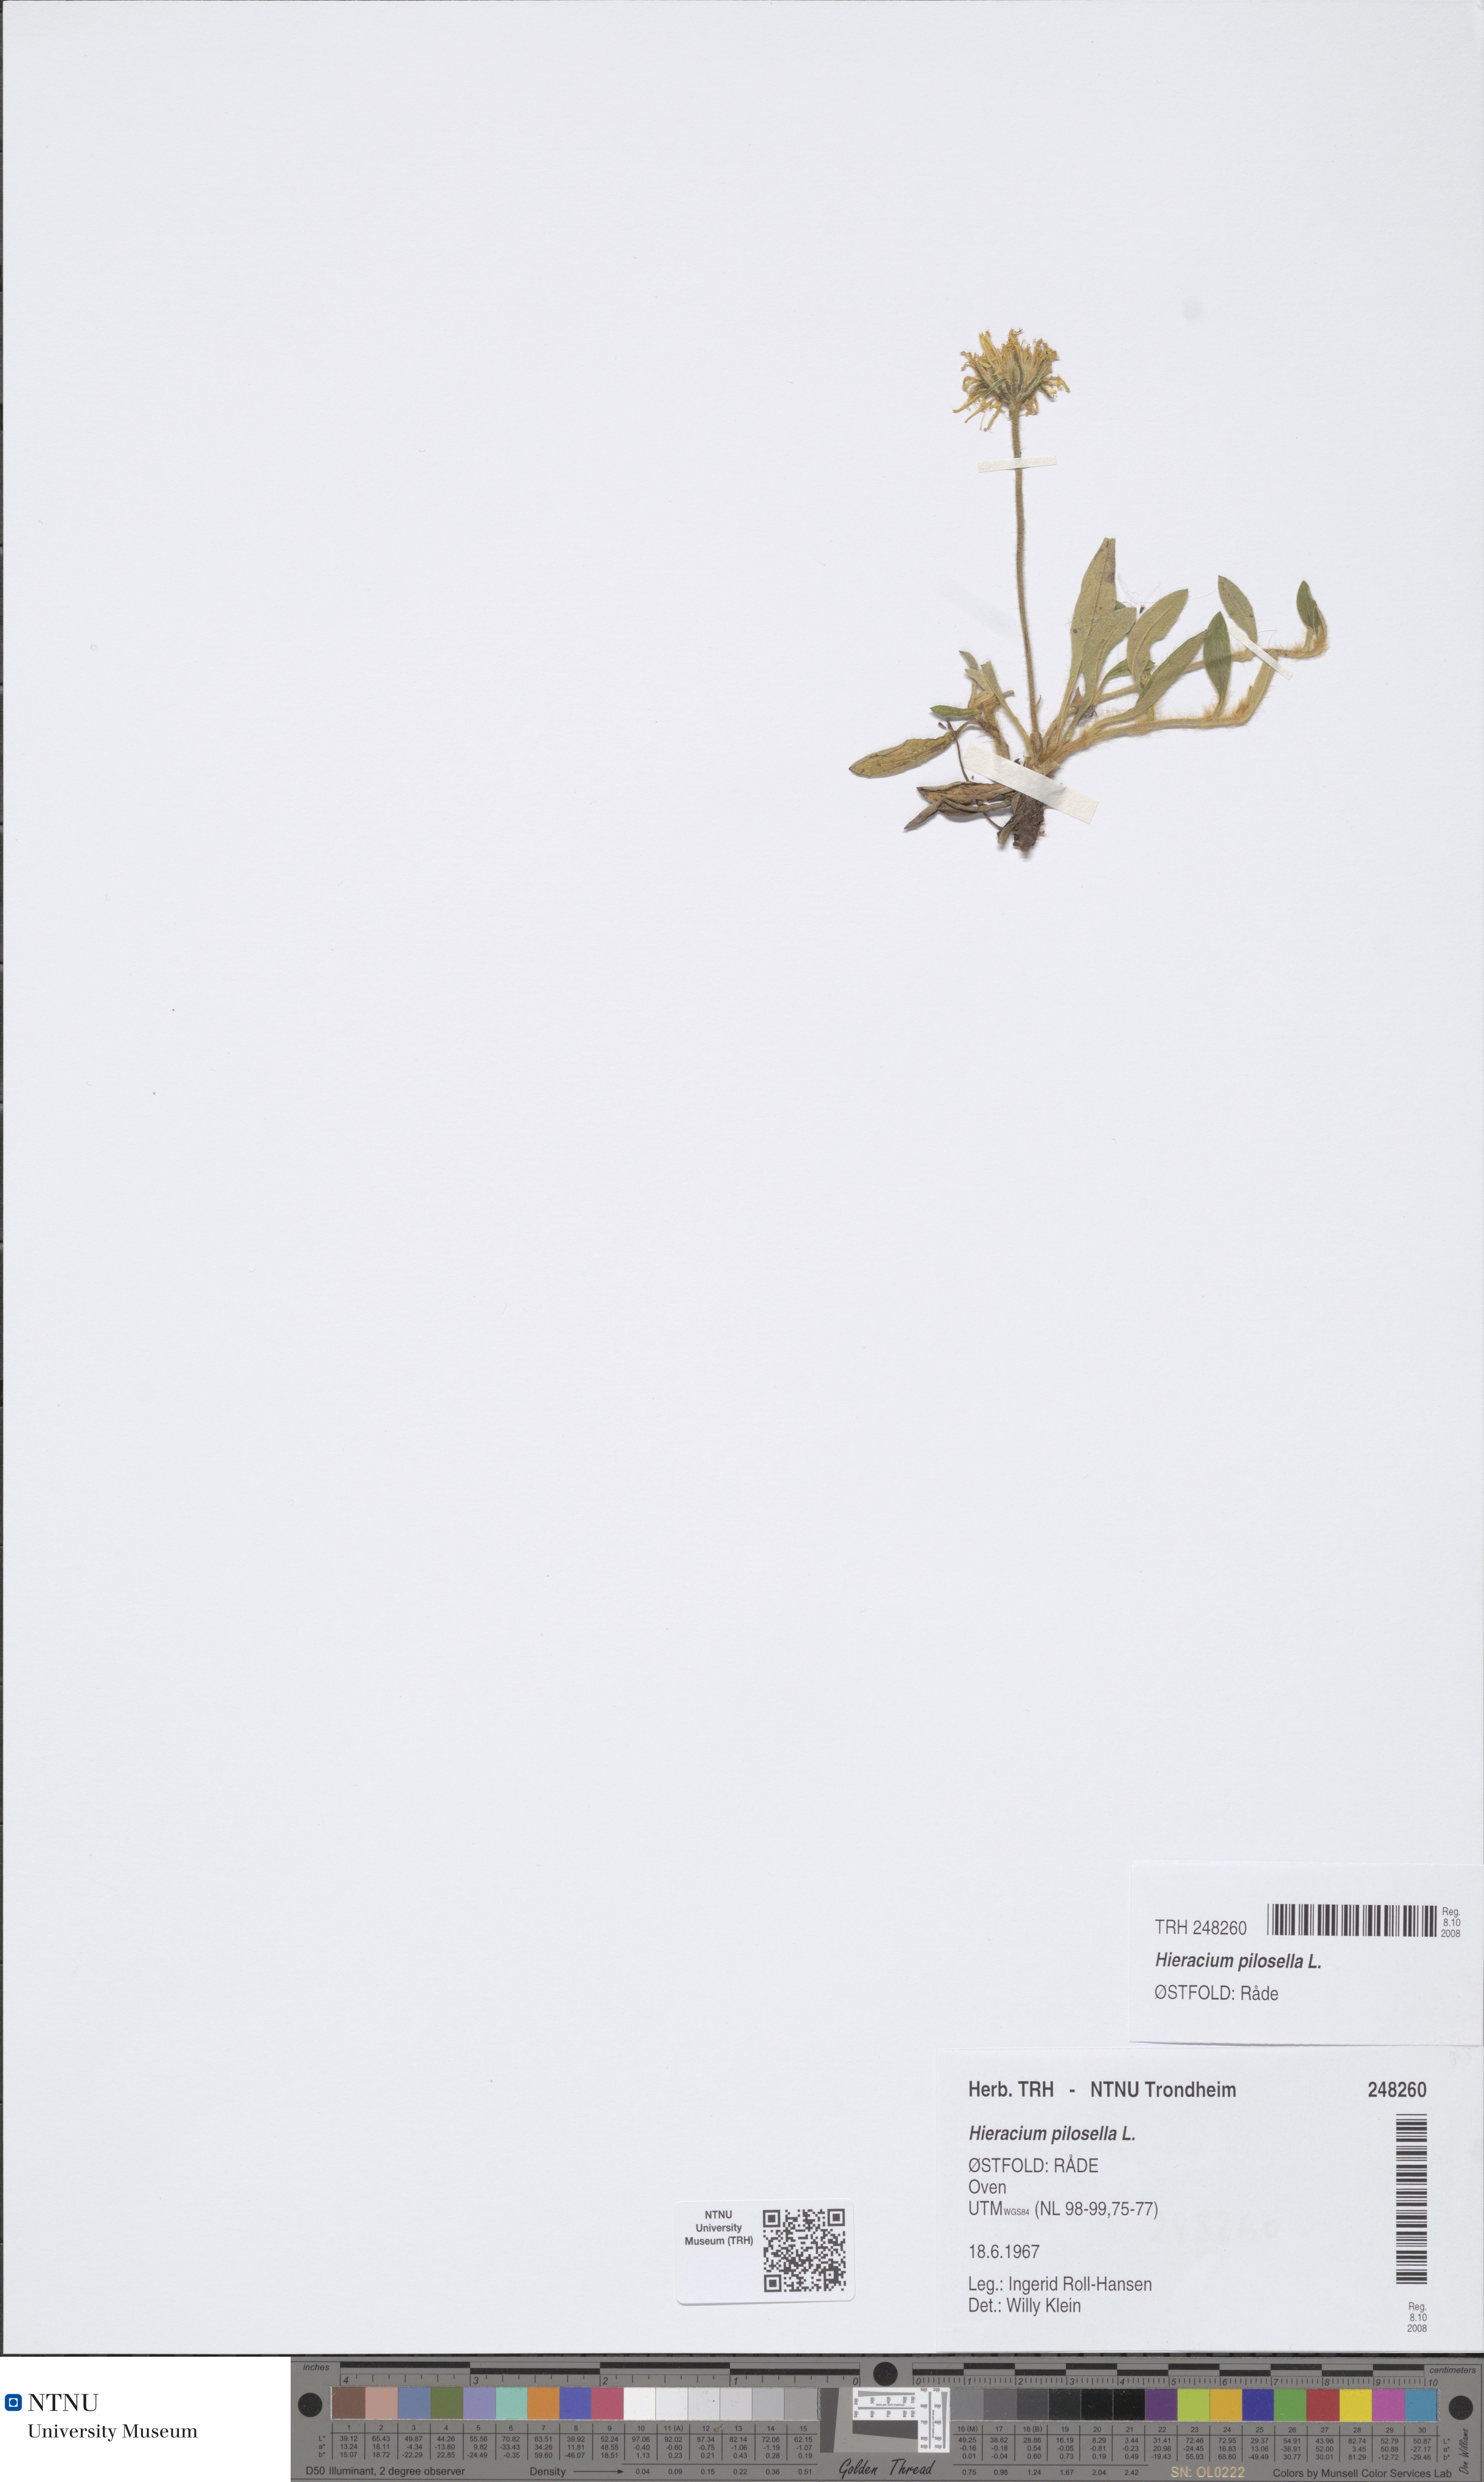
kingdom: Plantae
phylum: Tracheophyta
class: Magnoliopsida
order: Asterales
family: Asteraceae
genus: Pilosella
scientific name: Pilosella officinarum
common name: Mouse-ear hawkweed
